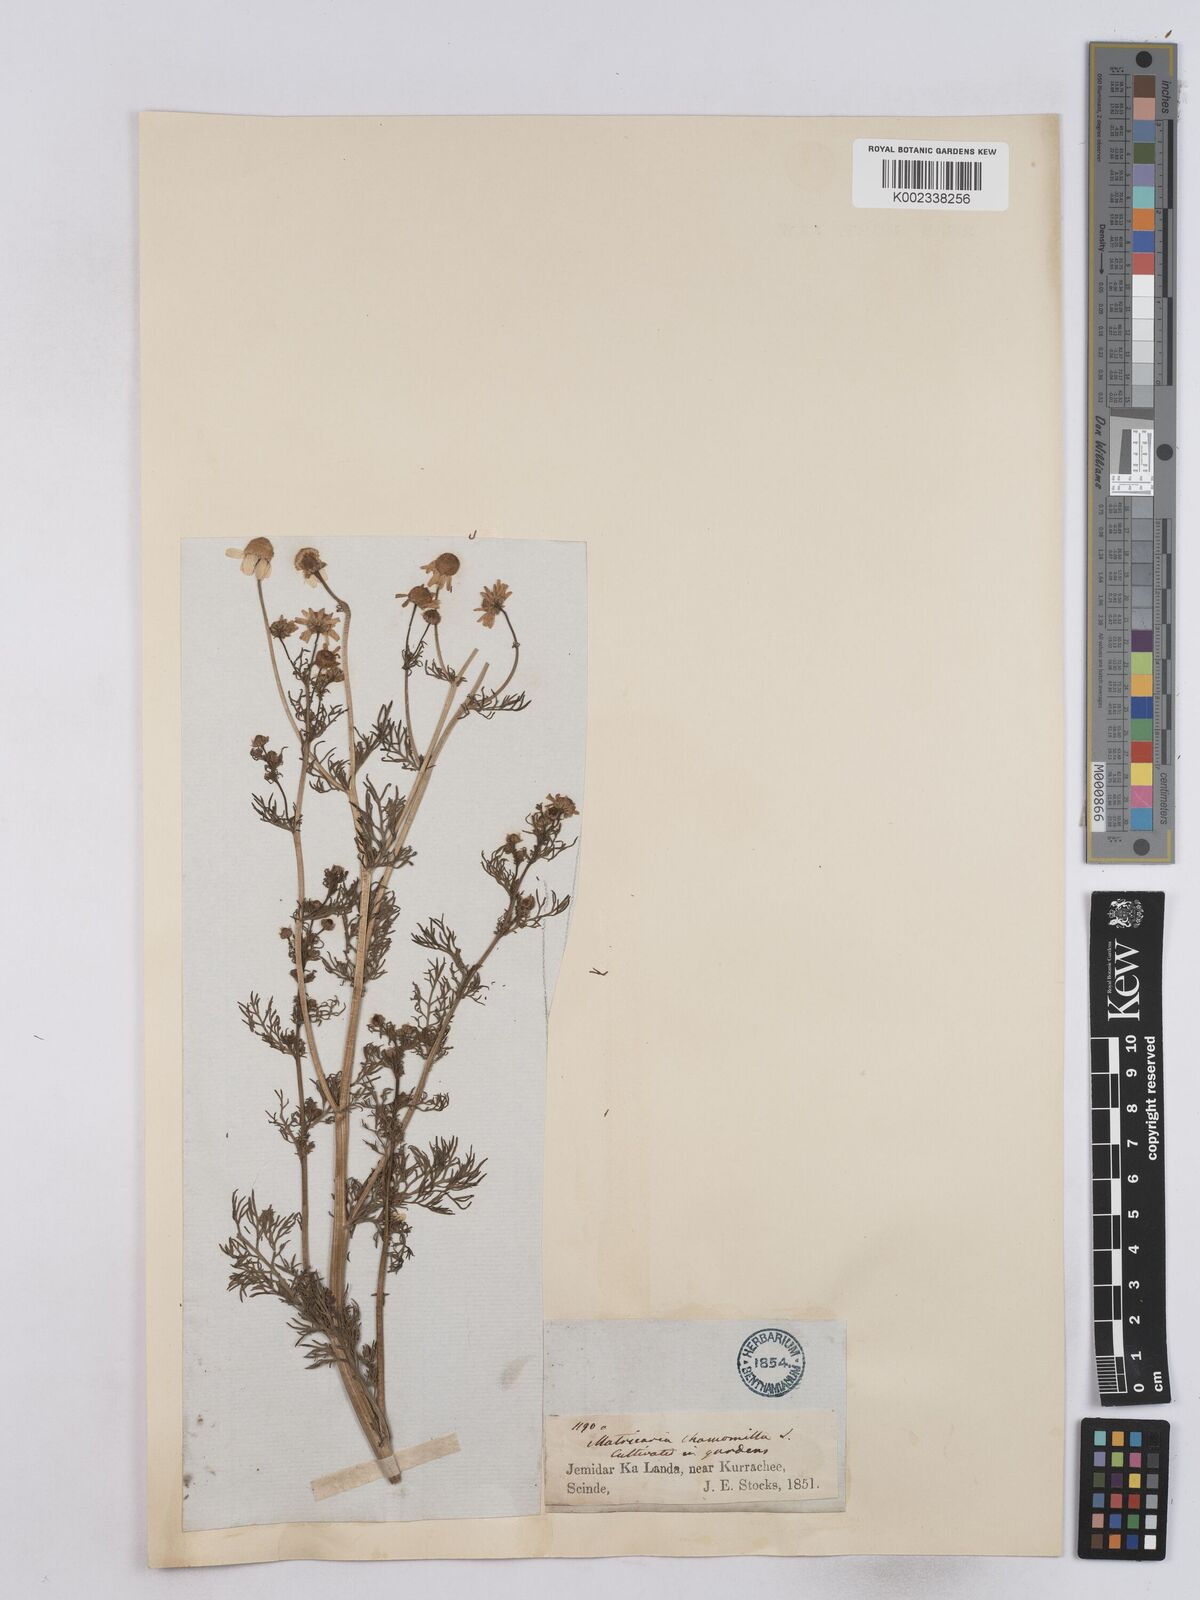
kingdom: Plantae
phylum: Tracheophyta
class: Magnoliopsida
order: Asterales
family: Asteraceae
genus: Matricaria
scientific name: Matricaria chamomilla
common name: Scented mayweed
